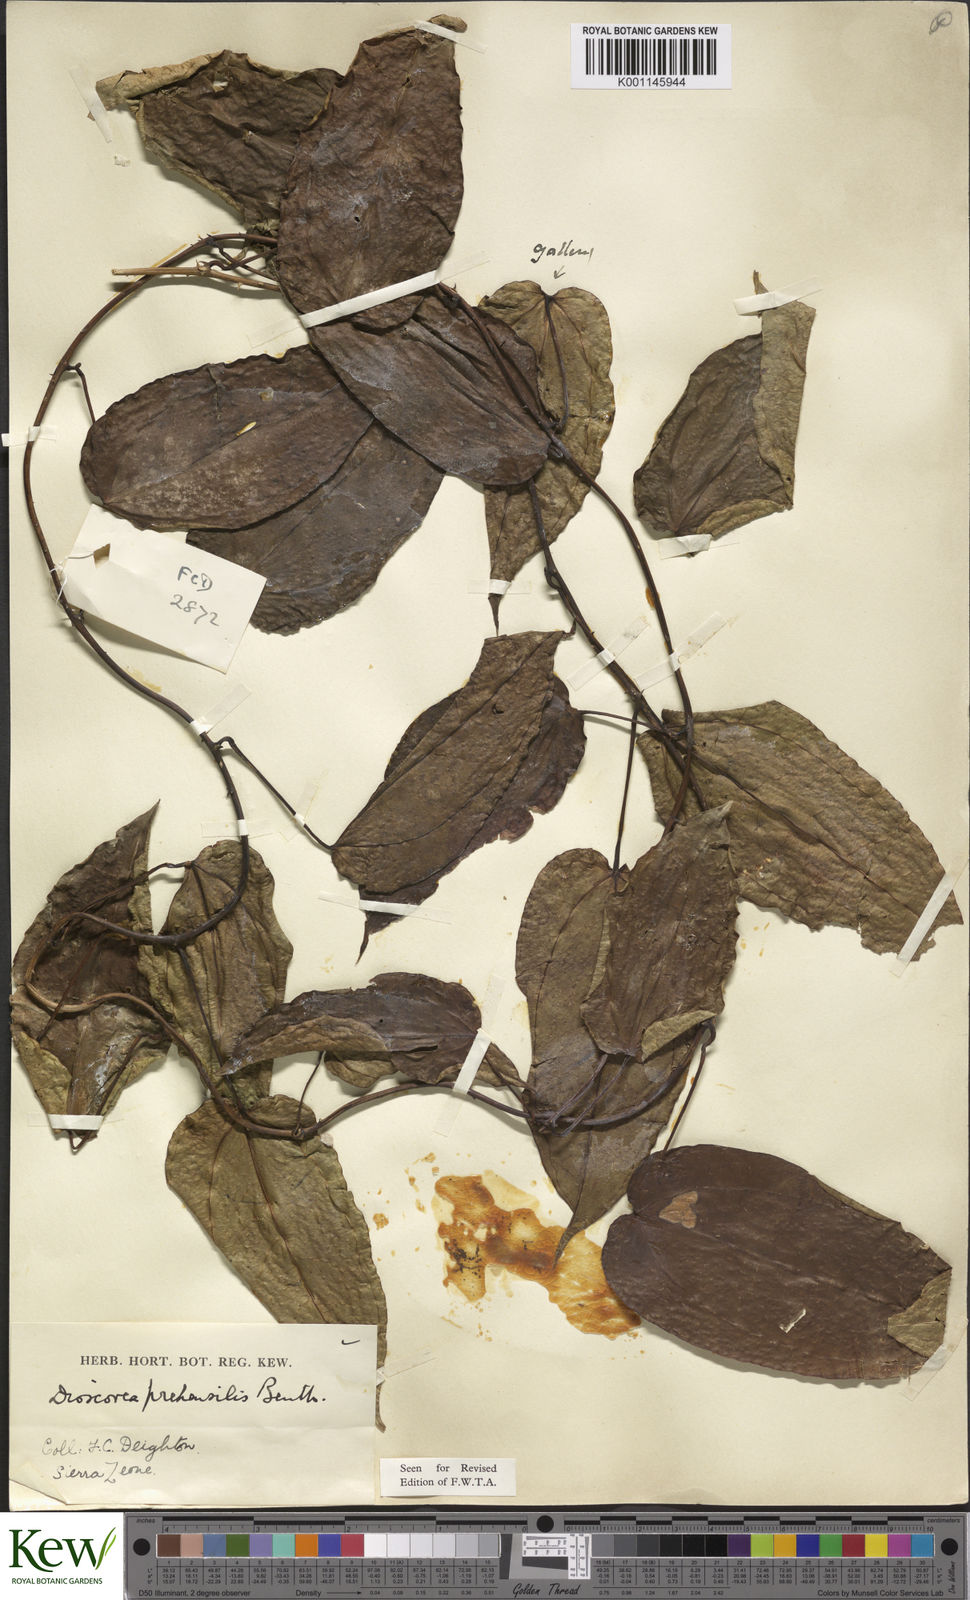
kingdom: Plantae
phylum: Tracheophyta
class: Liliopsida
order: Dioscoreales
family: Dioscoreaceae
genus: Dioscorea
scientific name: Dioscorea praehensilis
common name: Bush yam
